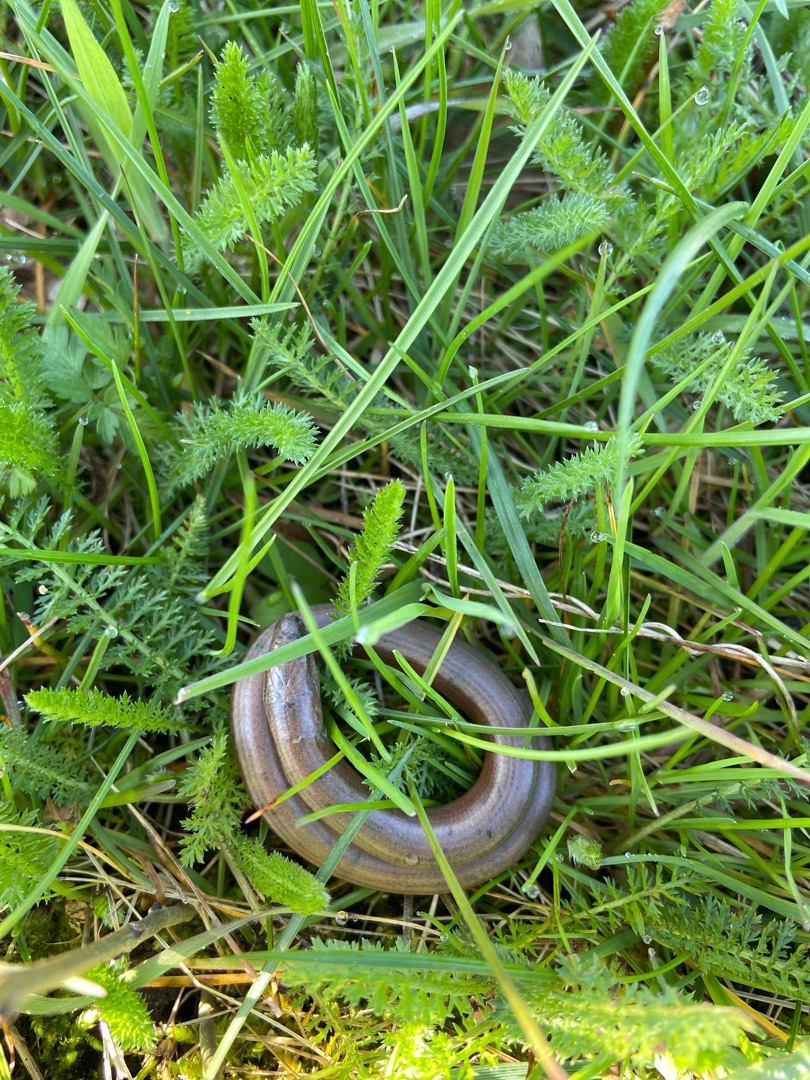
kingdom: Animalia
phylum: Chordata
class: Squamata
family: Anguidae
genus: Anguis
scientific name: Anguis fragilis
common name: Stålorm
